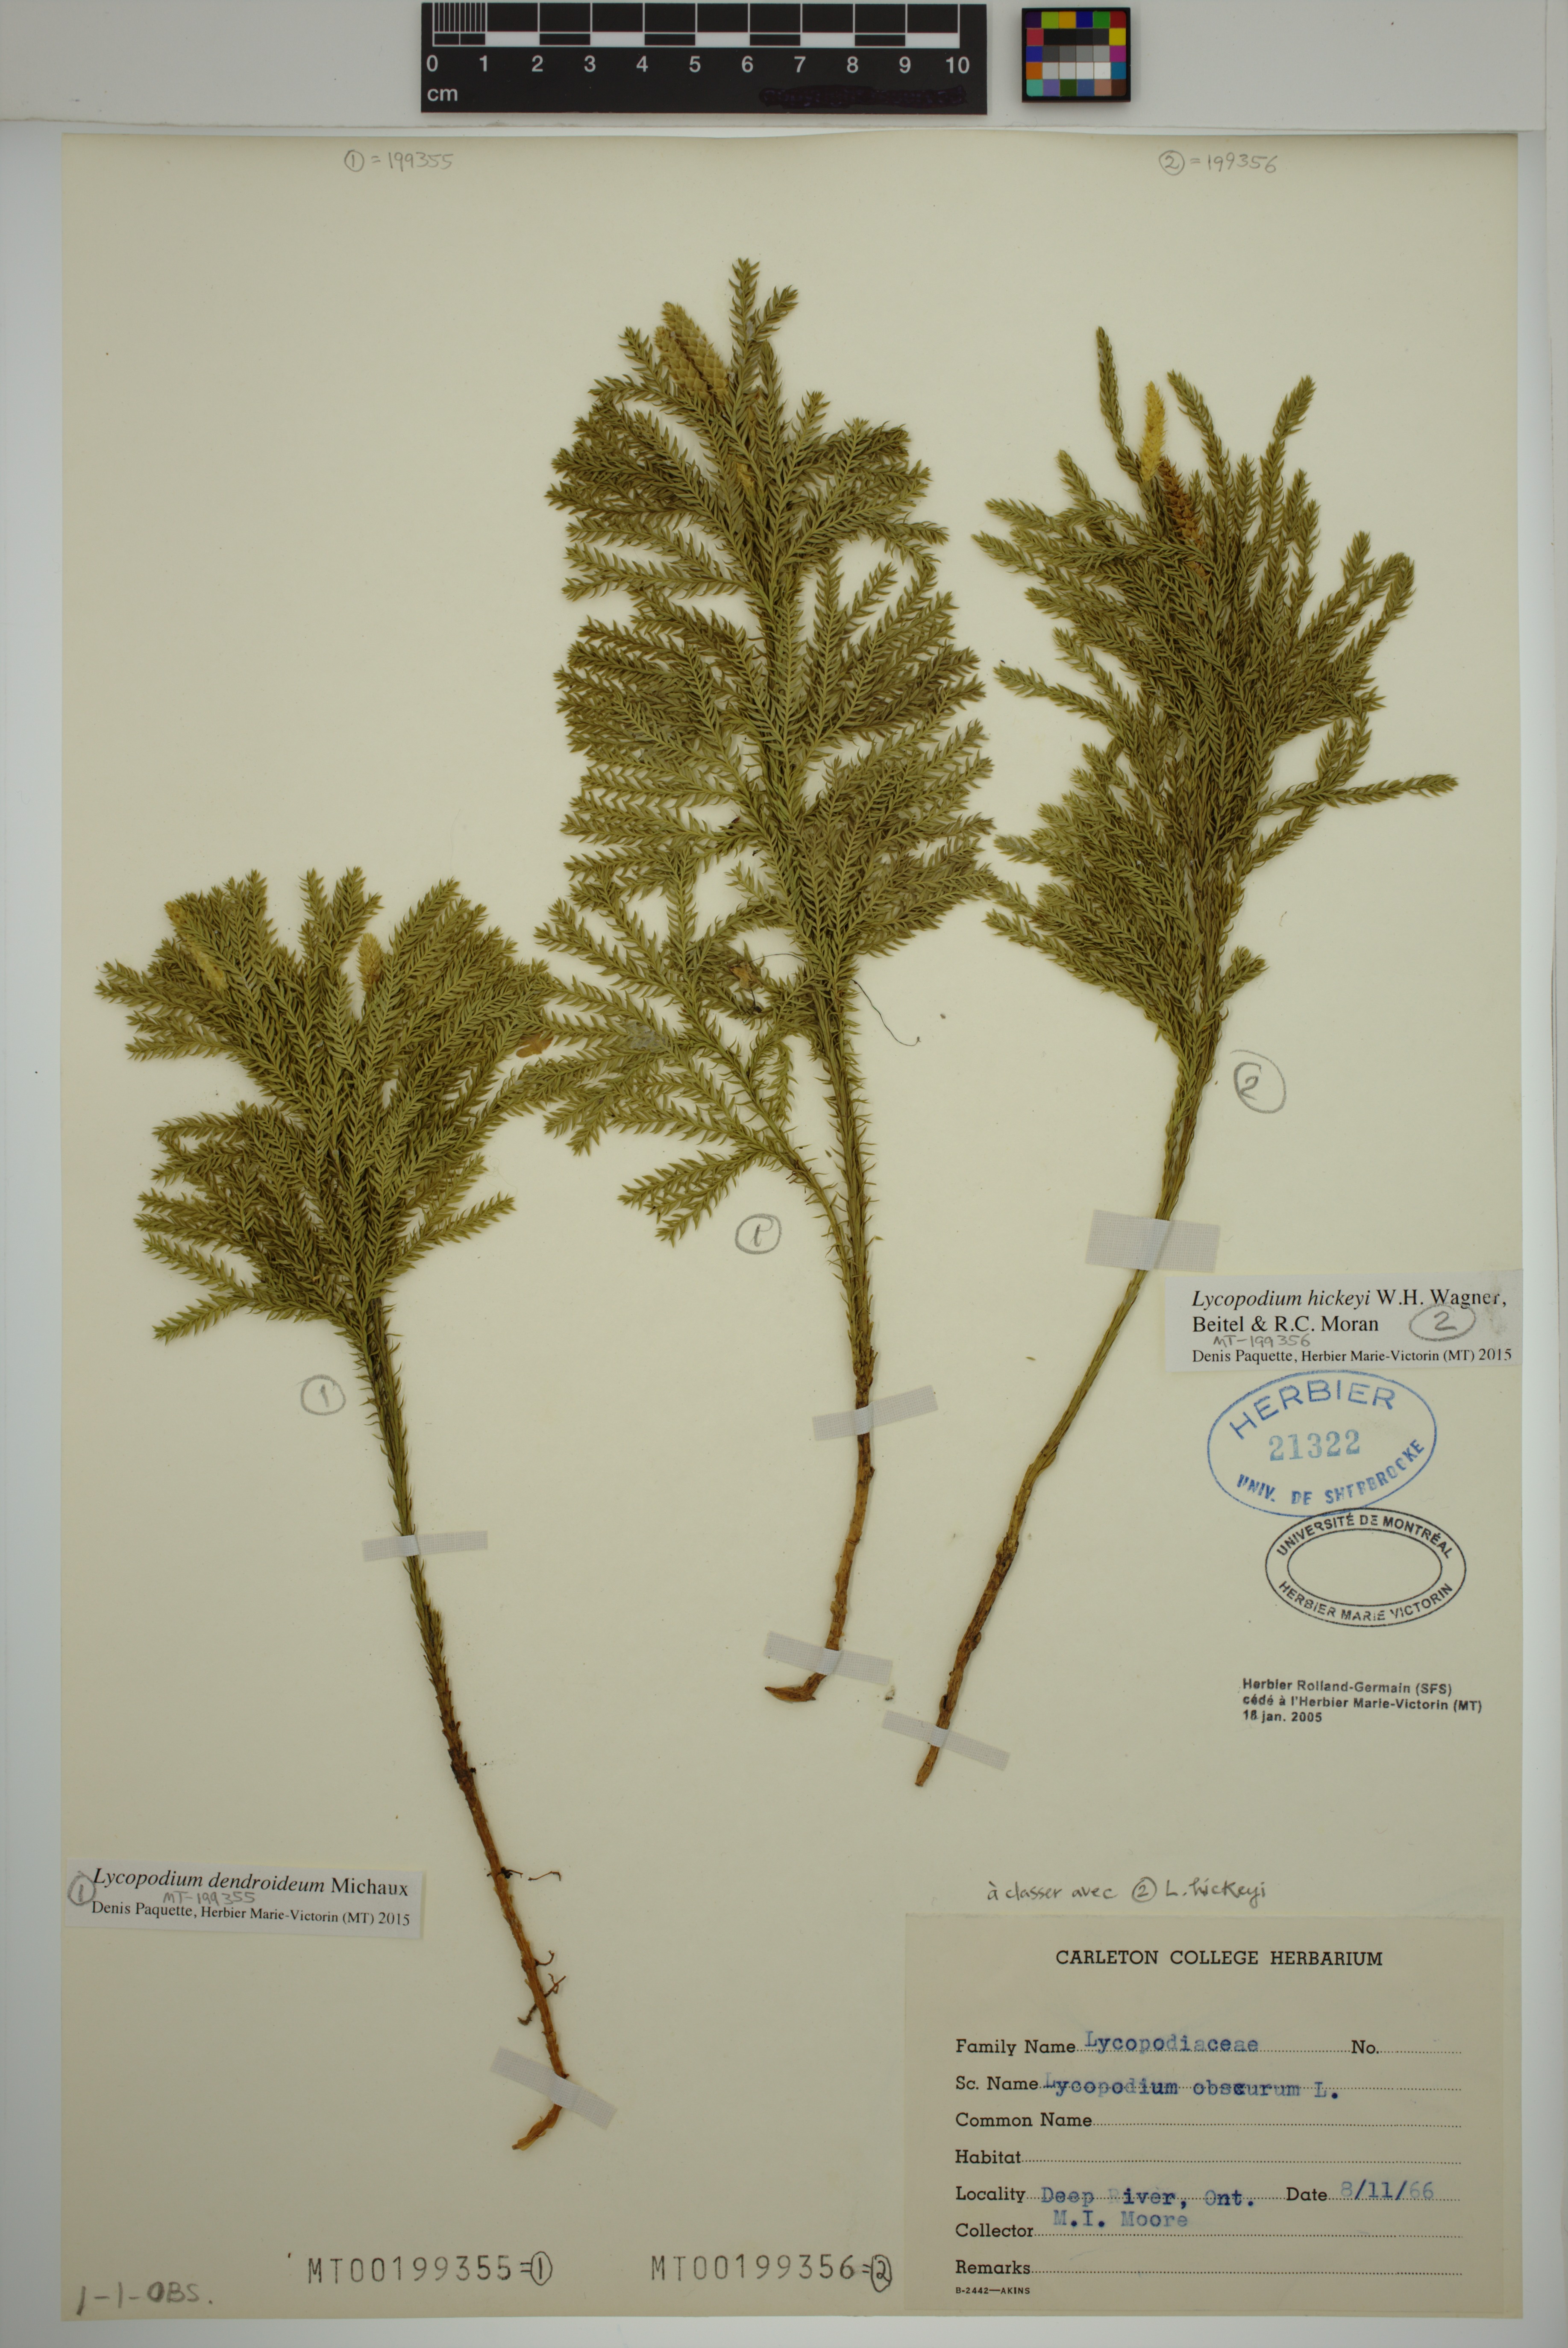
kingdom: Plantae
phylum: Tracheophyta
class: Lycopodiopsida
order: Lycopodiales
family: Lycopodiaceae
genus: Dendrolycopodium
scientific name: Dendrolycopodium hickeyi
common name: Hickey's clubmoss
